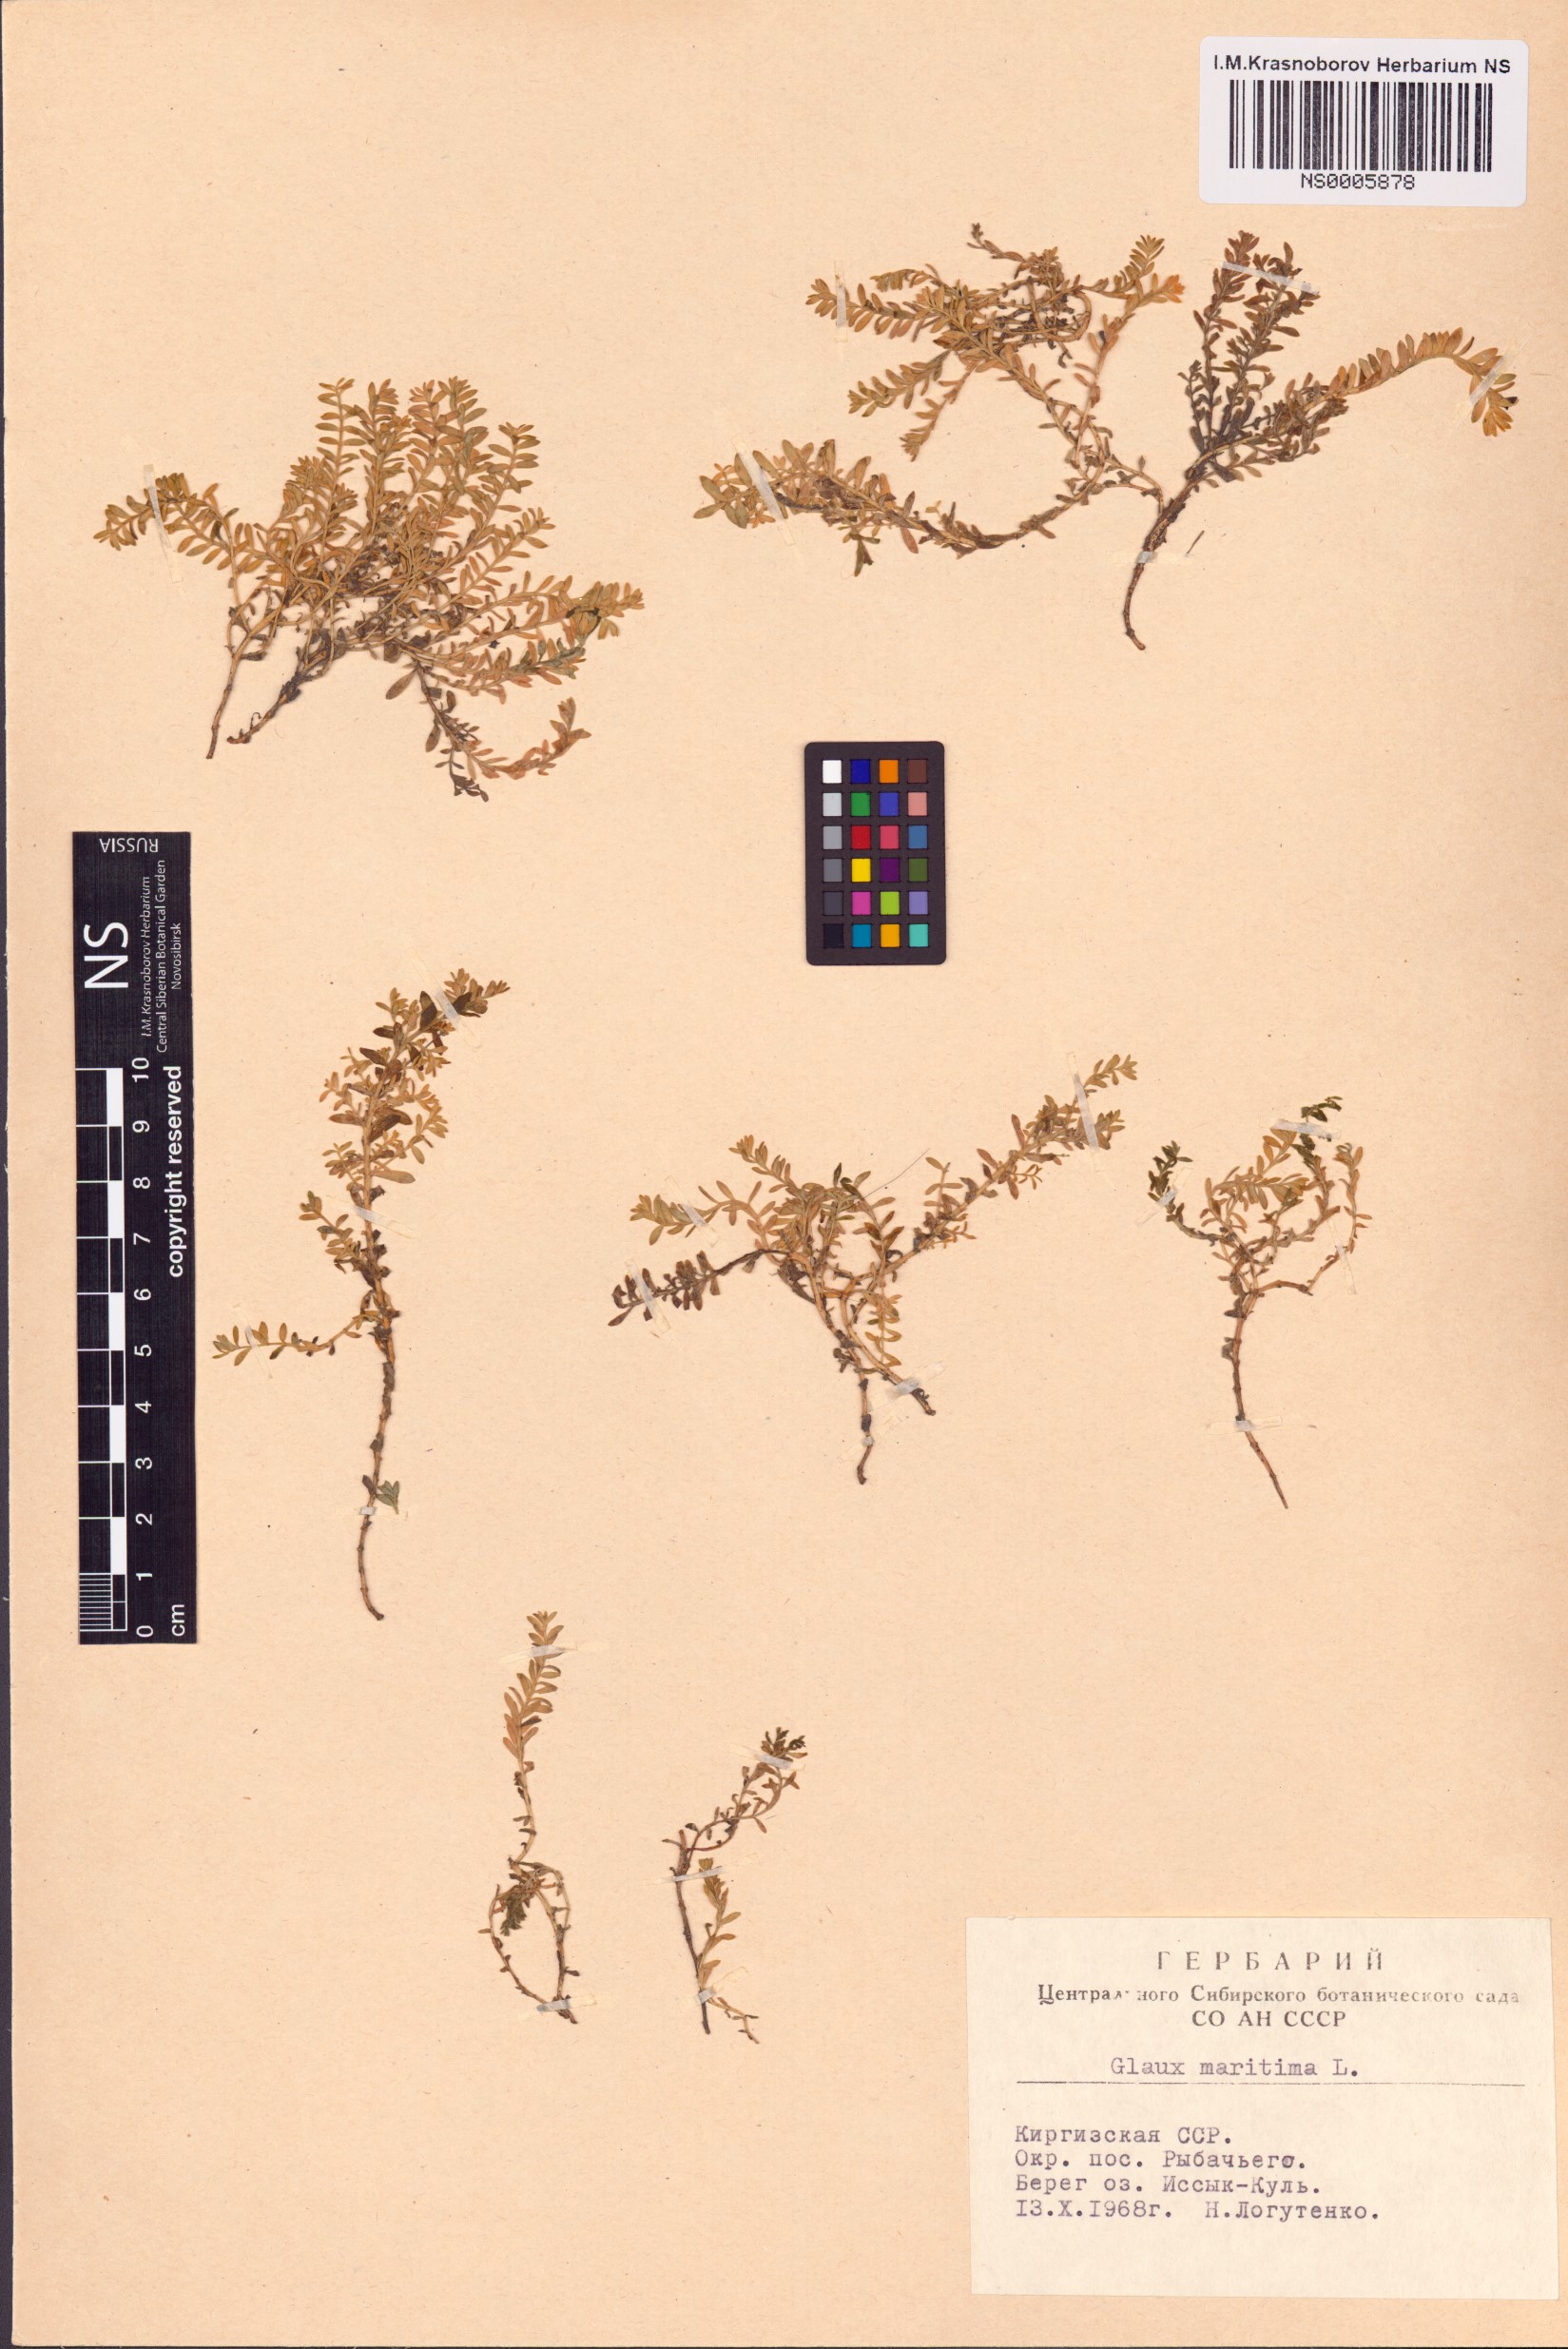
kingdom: Plantae
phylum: Tracheophyta
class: Magnoliopsida
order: Ericales
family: Primulaceae
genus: Lysimachia
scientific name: Lysimachia maritima
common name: Sea milkwort
